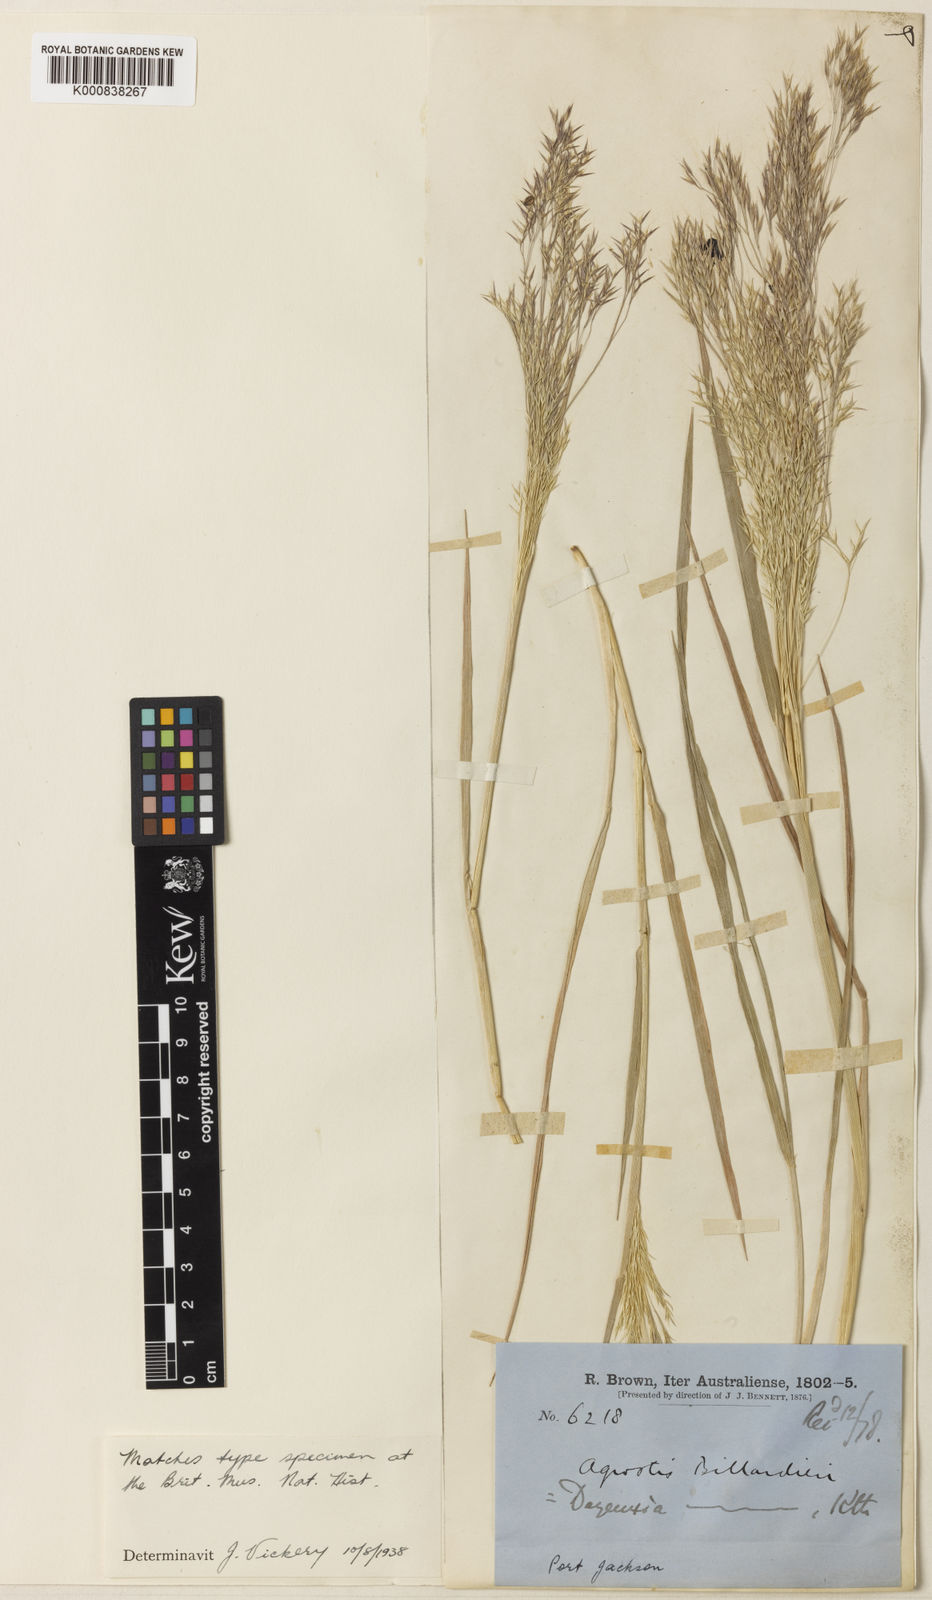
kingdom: Plantae
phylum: Tracheophyta
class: Liliopsida
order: Poales
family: Poaceae
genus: Lachnagrostis
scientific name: Lachnagrostis billardierei
